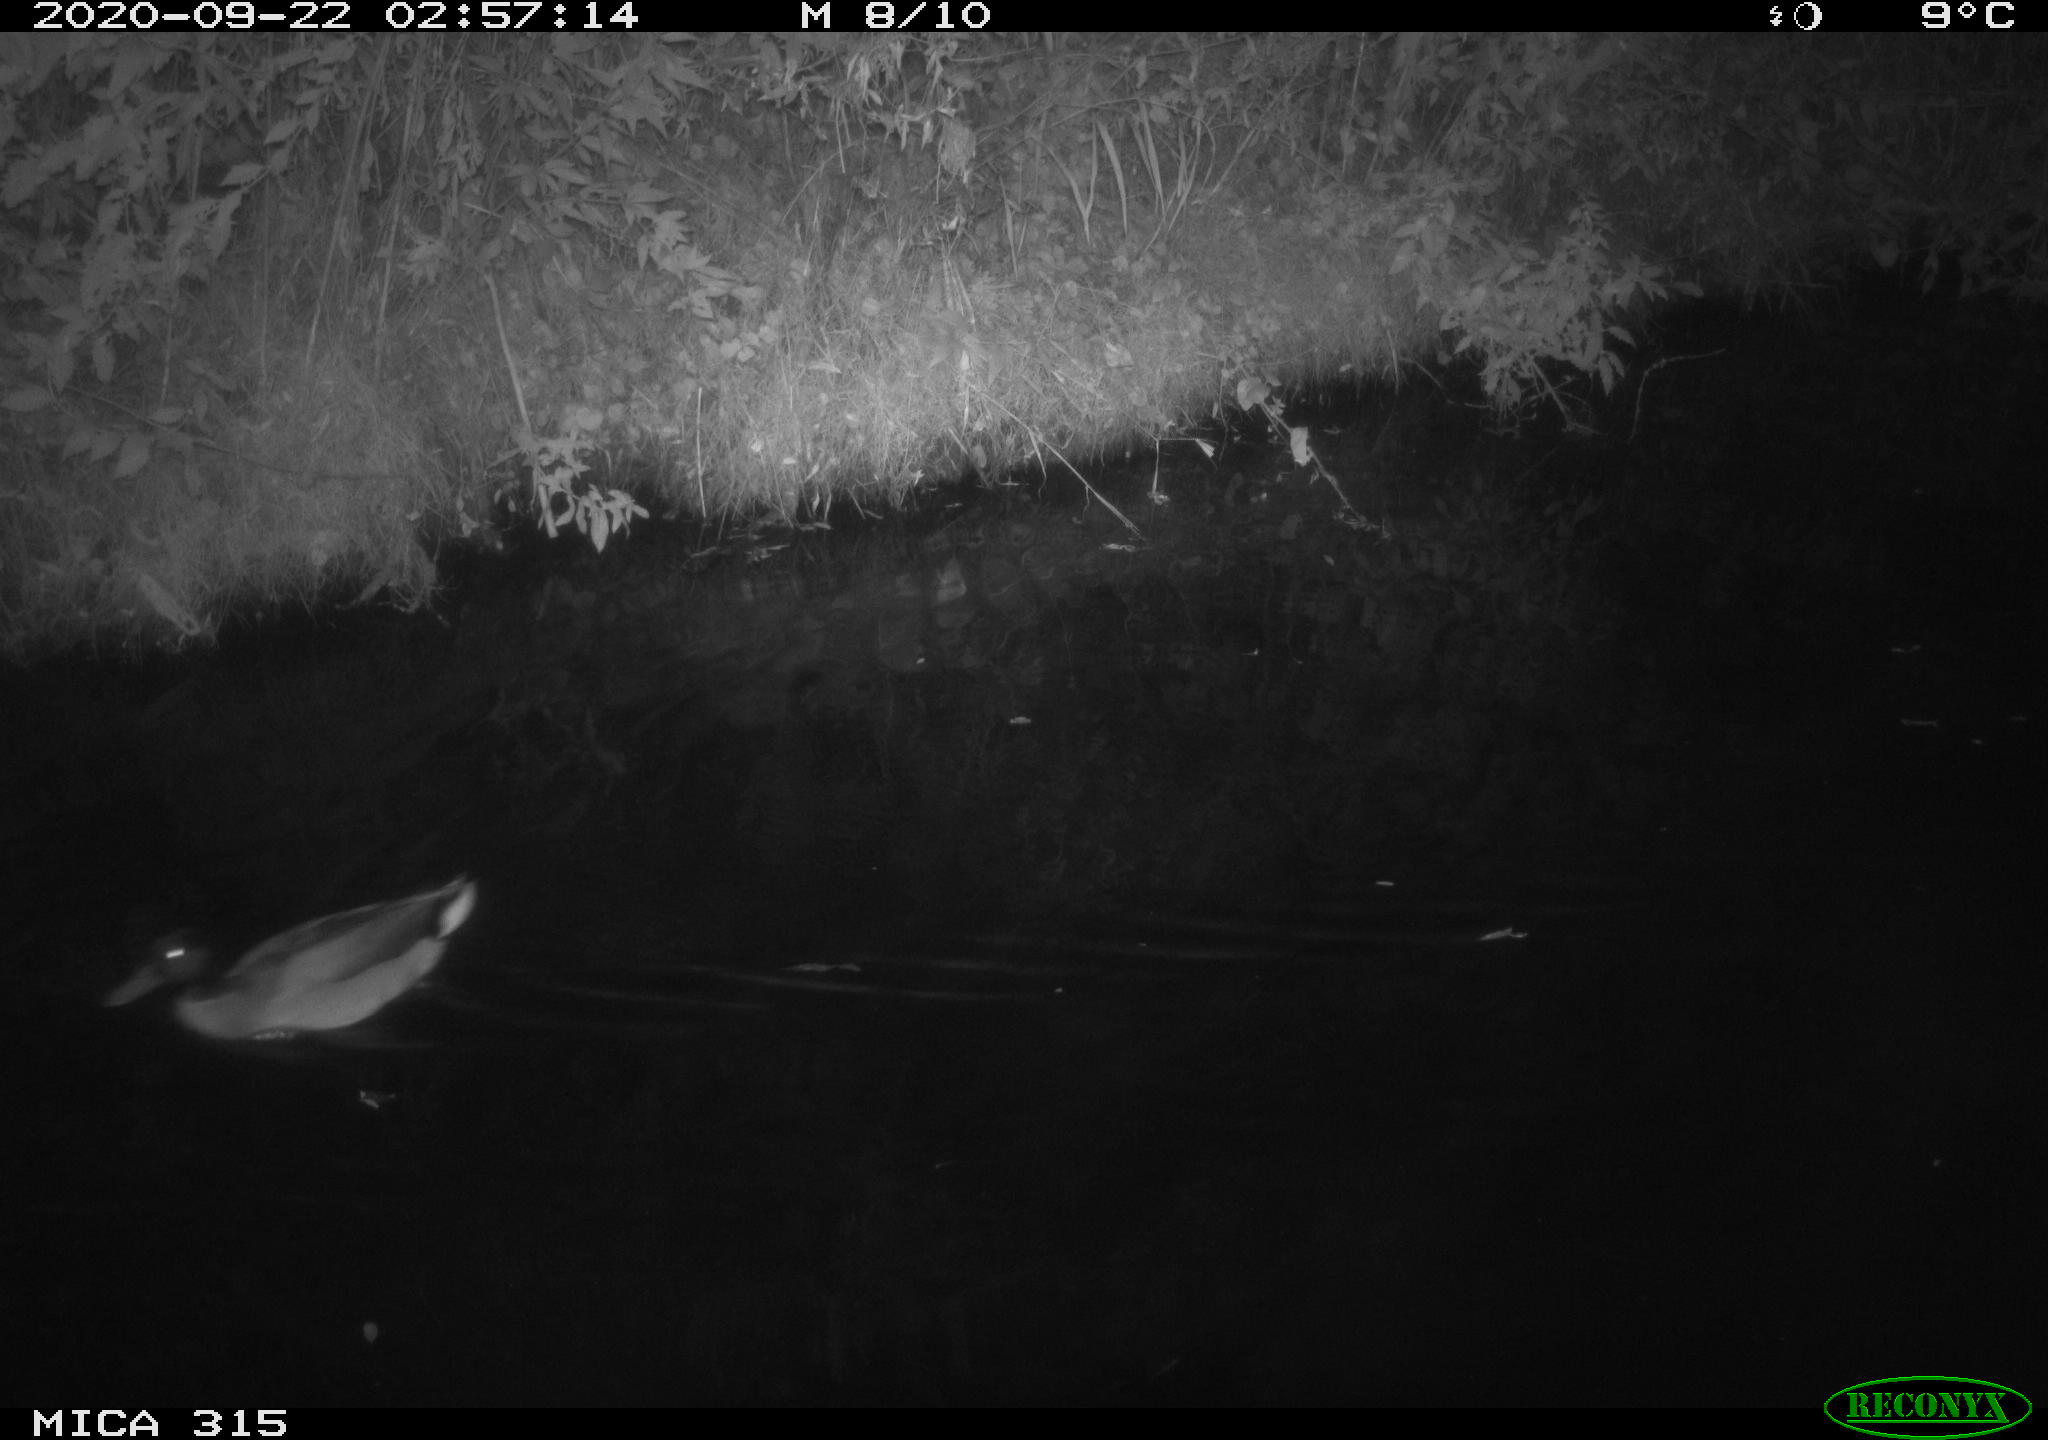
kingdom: Animalia
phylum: Chordata
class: Aves
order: Anseriformes
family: Anatidae
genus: Anas
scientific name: Anas platyrhynchos
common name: Mallard
